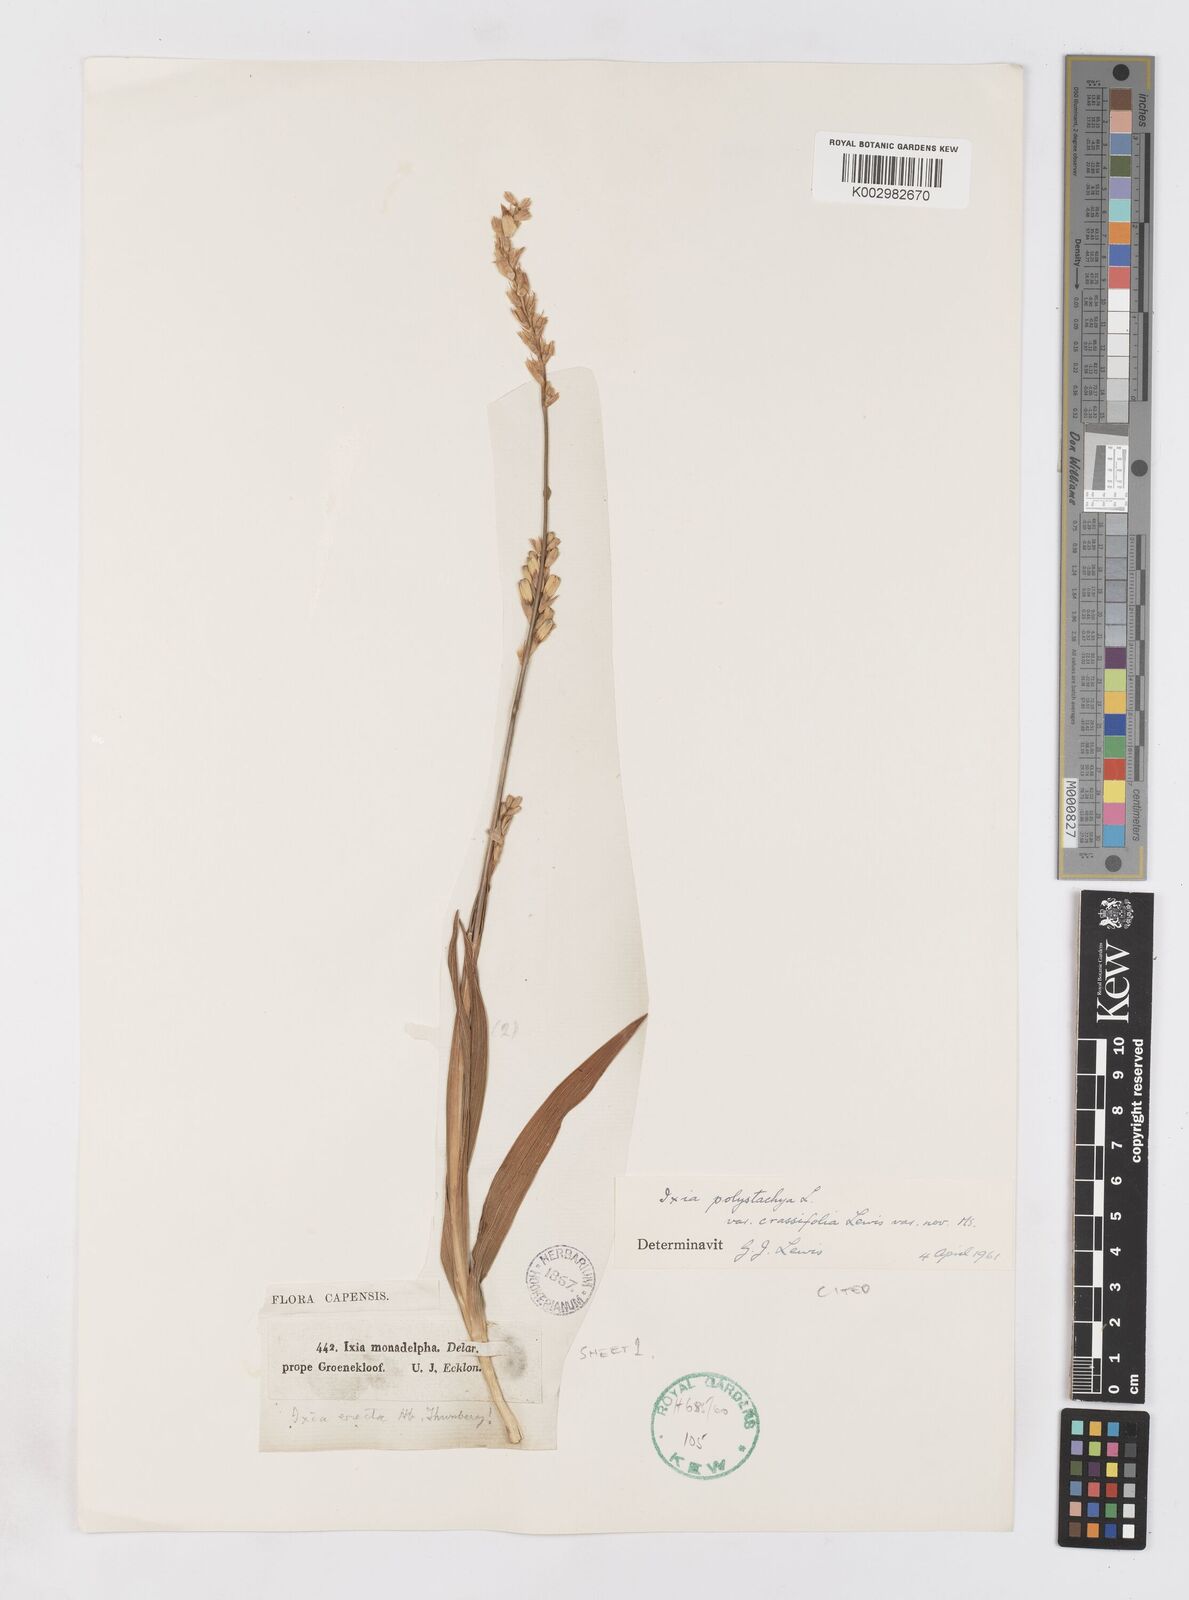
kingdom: Plantae
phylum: Tracheophyta
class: Liliopsida
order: Asparagales
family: Iridaceae
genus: Ixia
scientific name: Ixia polystachya
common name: White-and-yellow-flower cornlily
